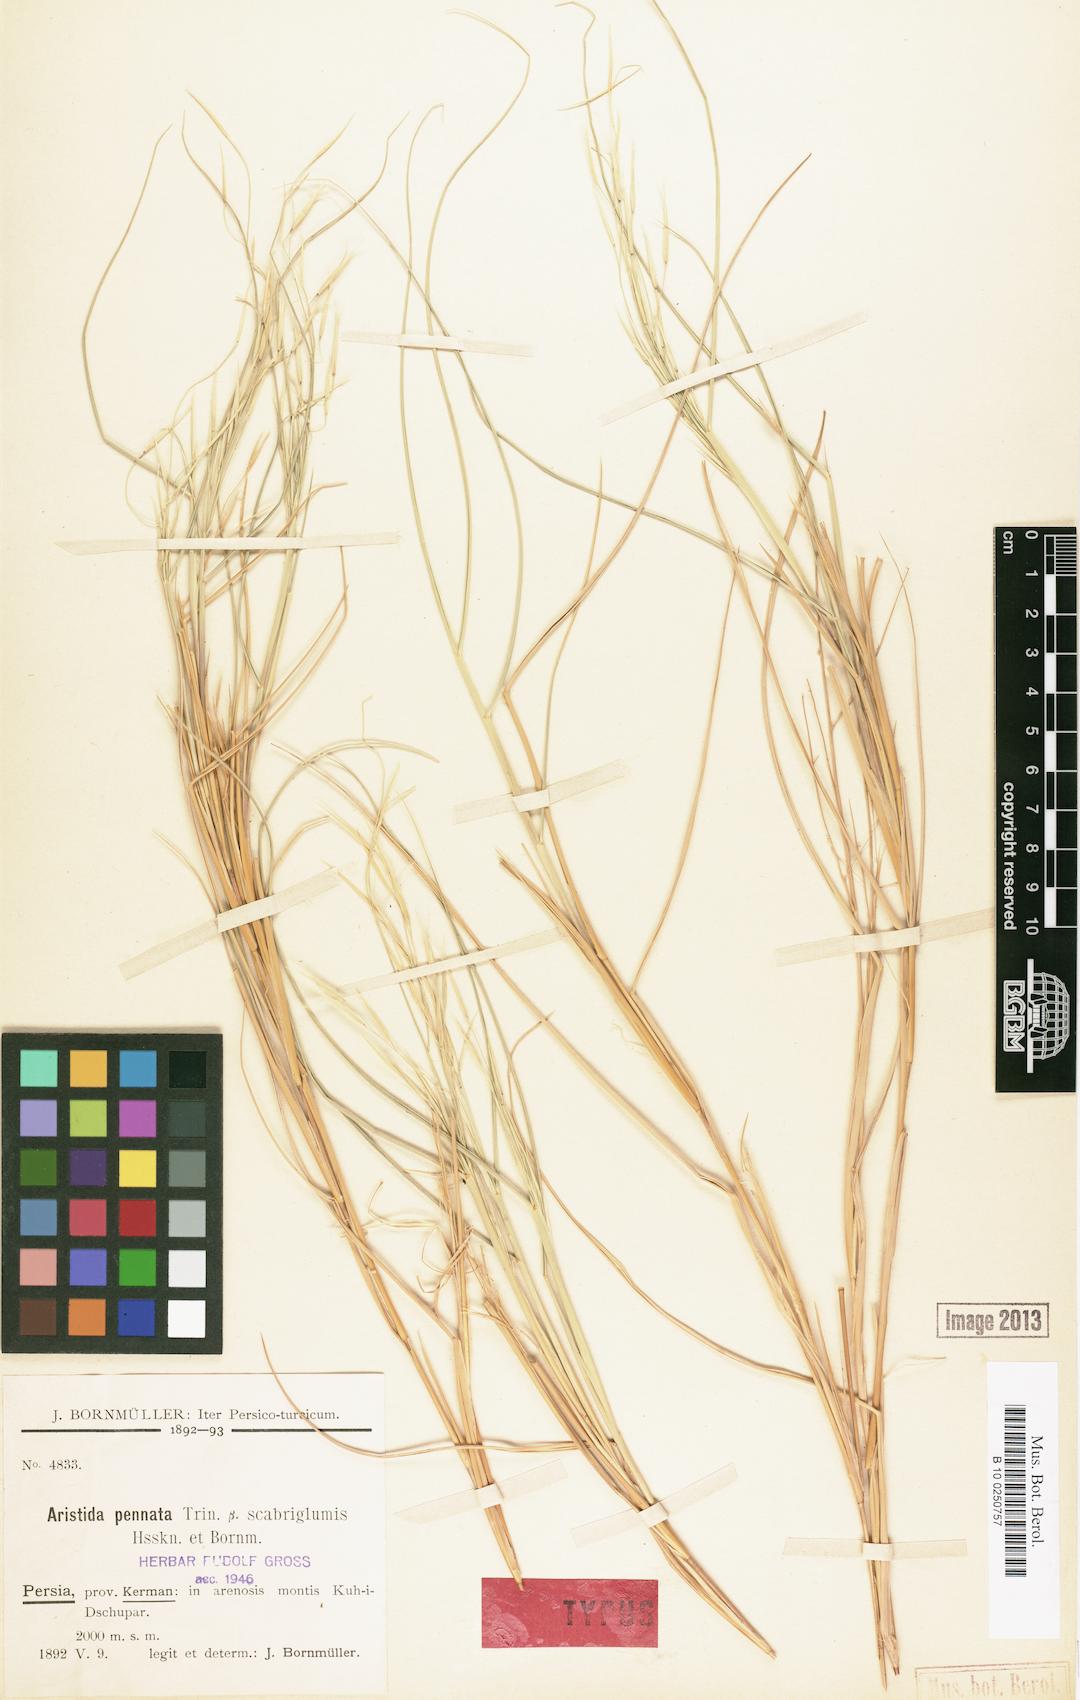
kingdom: Plantae
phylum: Tracheophyta
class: Liliopsida
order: Poales
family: Poaceae
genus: Stipagrostis
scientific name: Stipagrostis pennata
